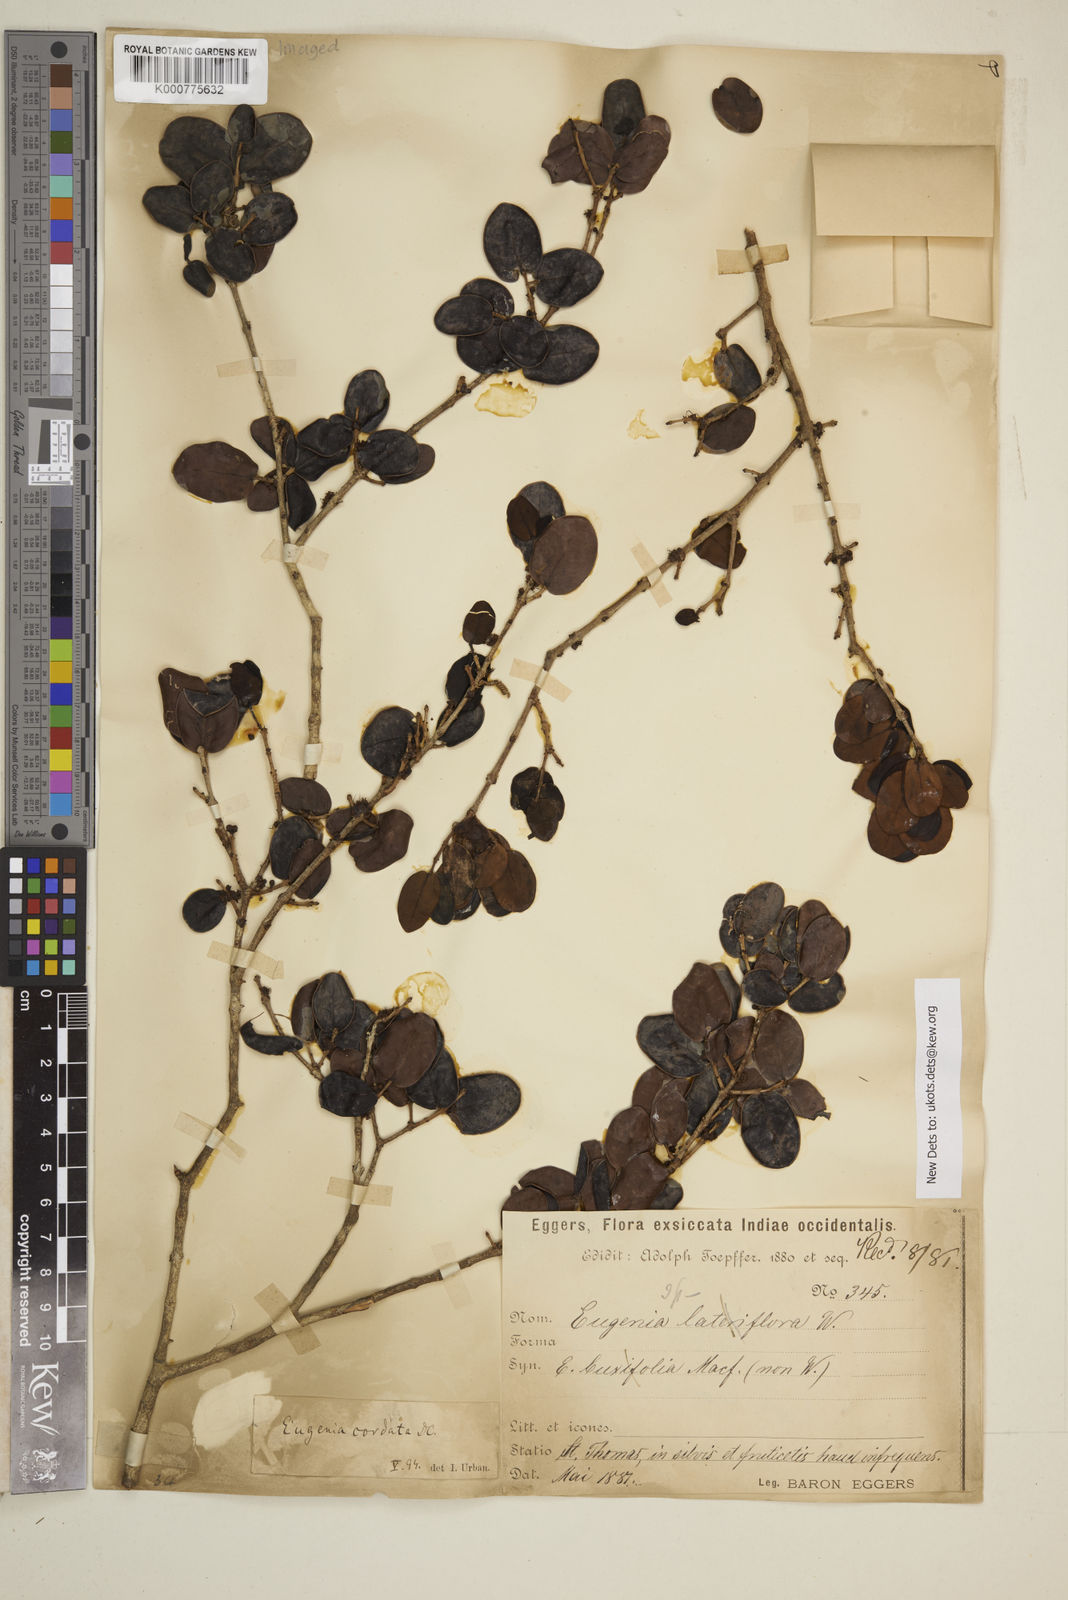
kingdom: Plantae
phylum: Tracheophyta
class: Magnoliopsida
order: Myrtales
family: Myrtaceae
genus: Eugenia
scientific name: Eugenia cordata
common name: Lathberry
